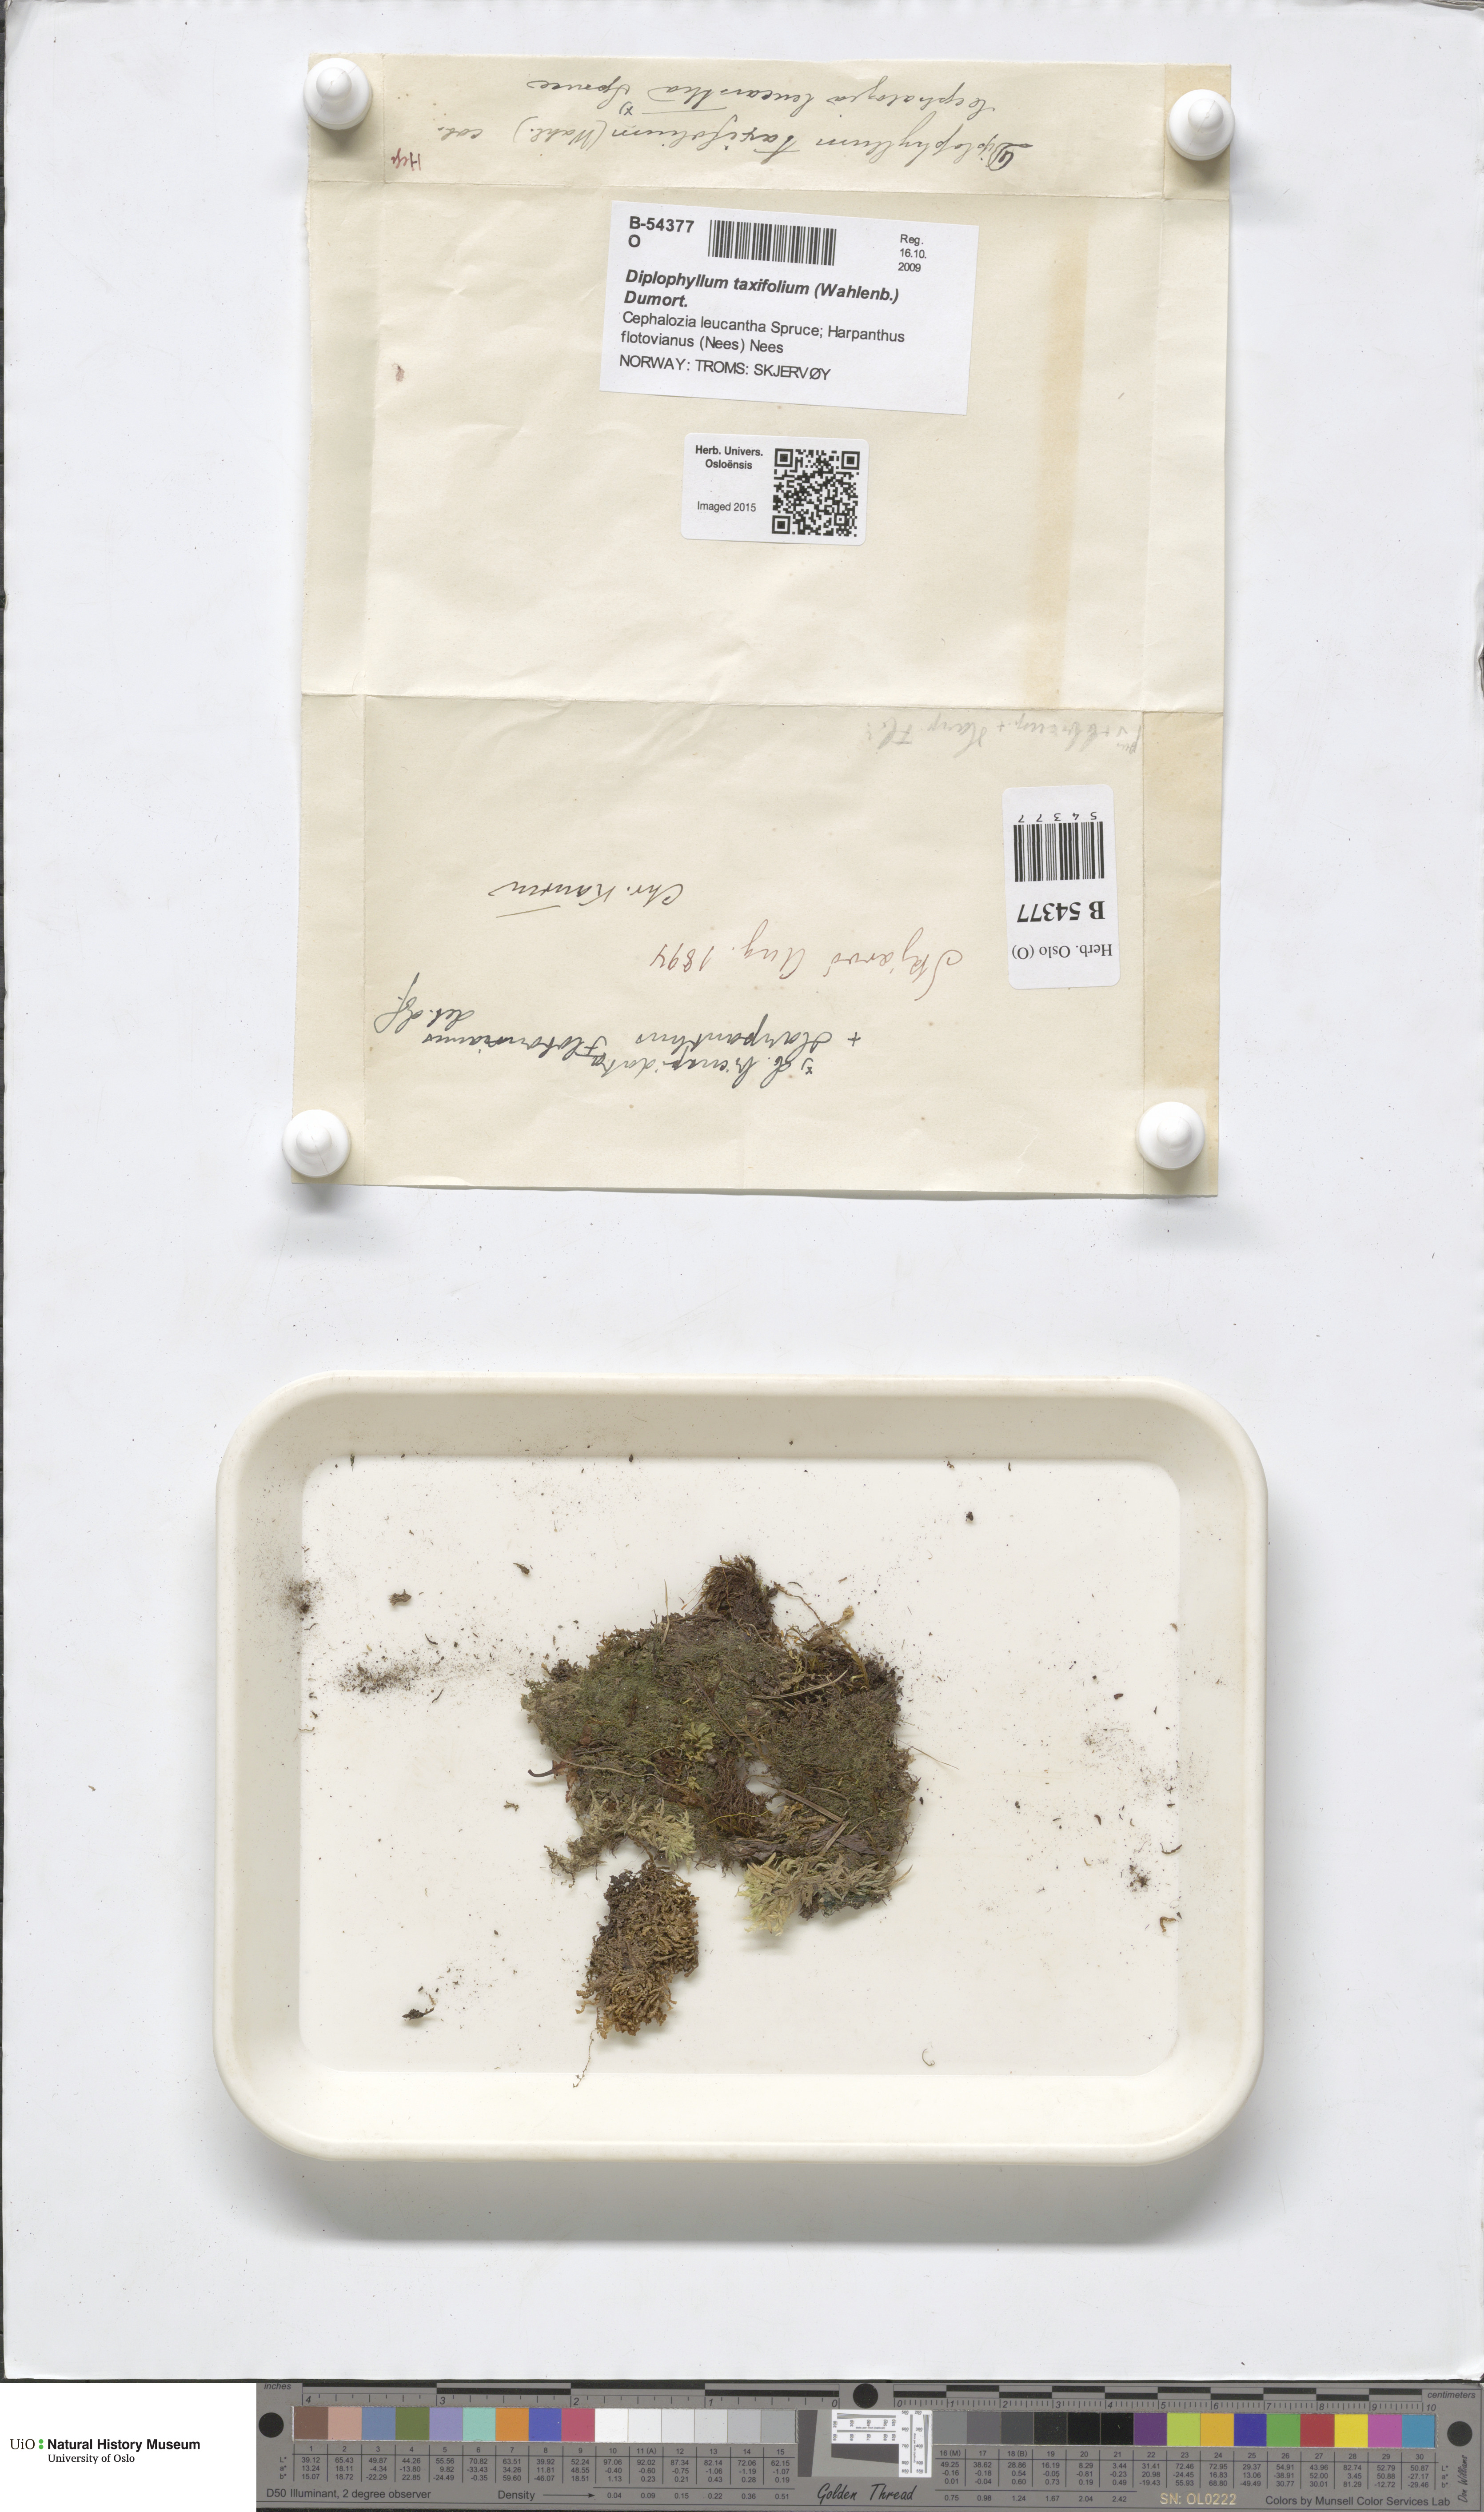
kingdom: Plantae
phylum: Marchantiophyta
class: Jungermanniopsida
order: Jungermanniales
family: Scapaniaceae
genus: Diplophyllum
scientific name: Diplophyllum taxifolium
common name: Alpine earwort
